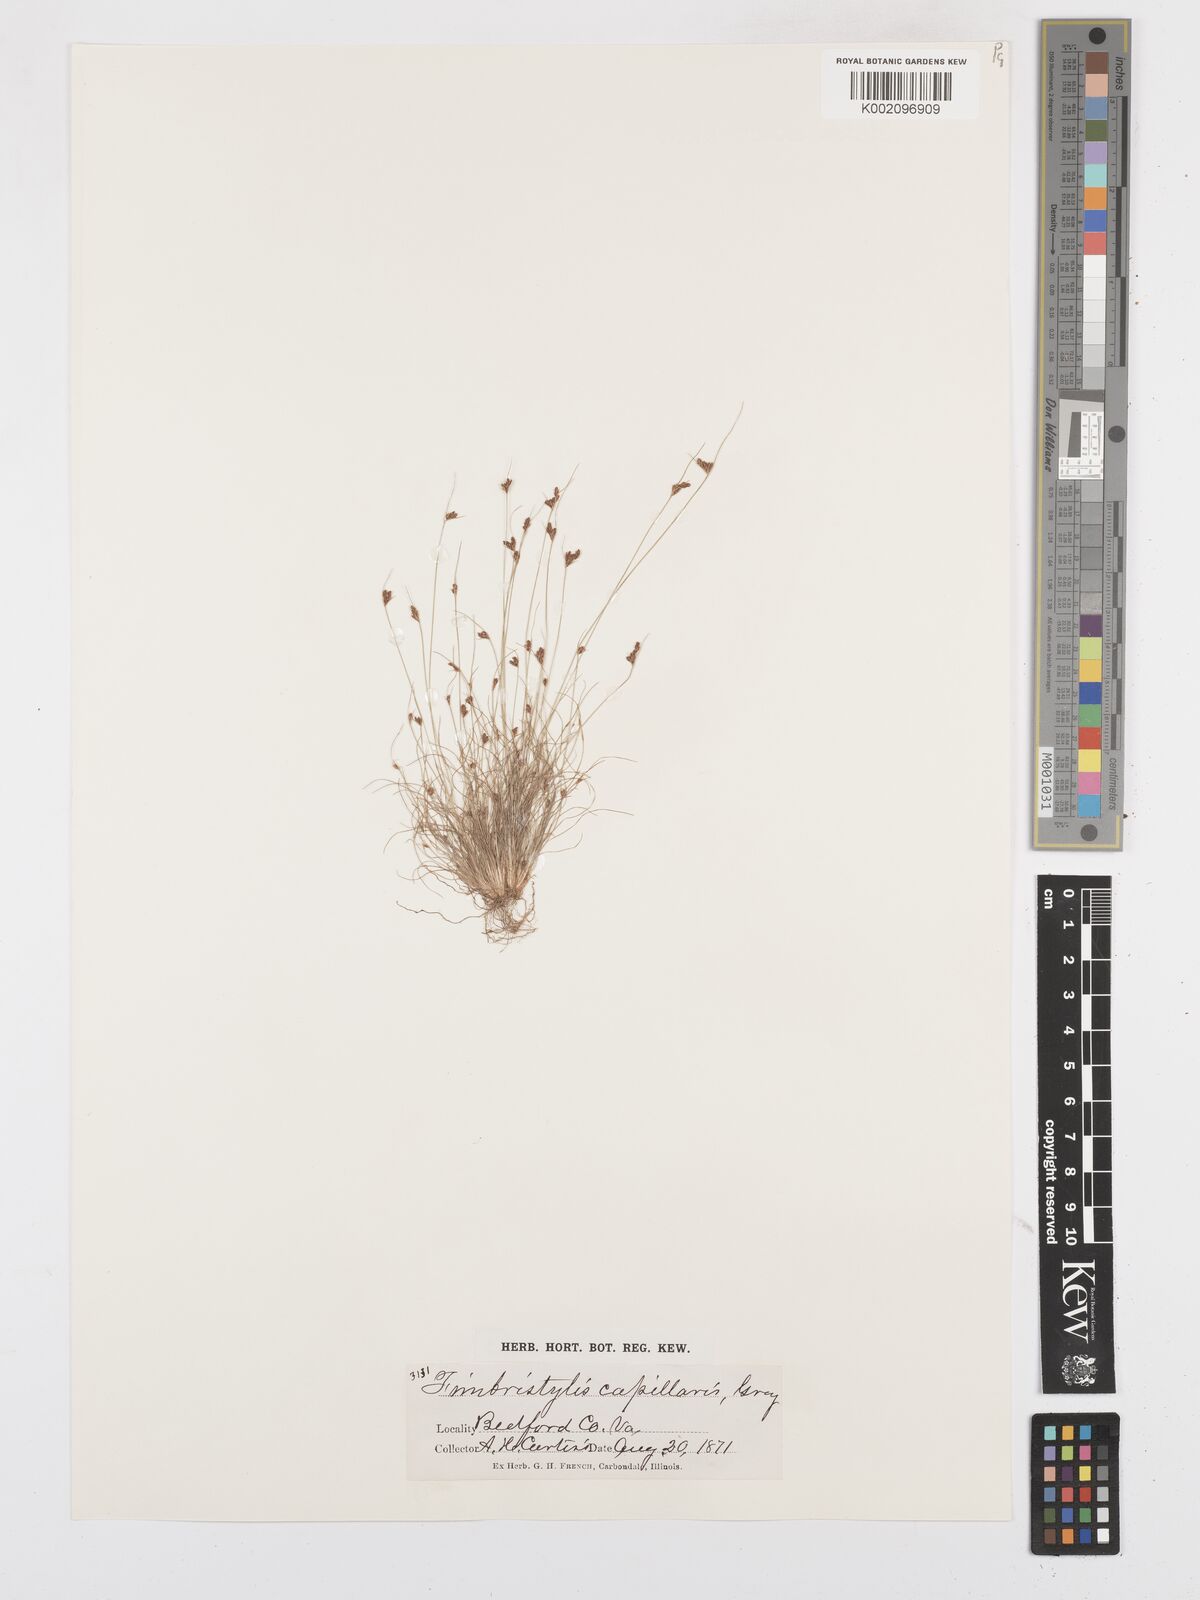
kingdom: Plantae
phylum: Tracheophyta
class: Liliopsida
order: Poales
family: Cyperaceae
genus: Bulbostylis
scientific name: Bulbostylis capillaris
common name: Densetuft hairsedge
